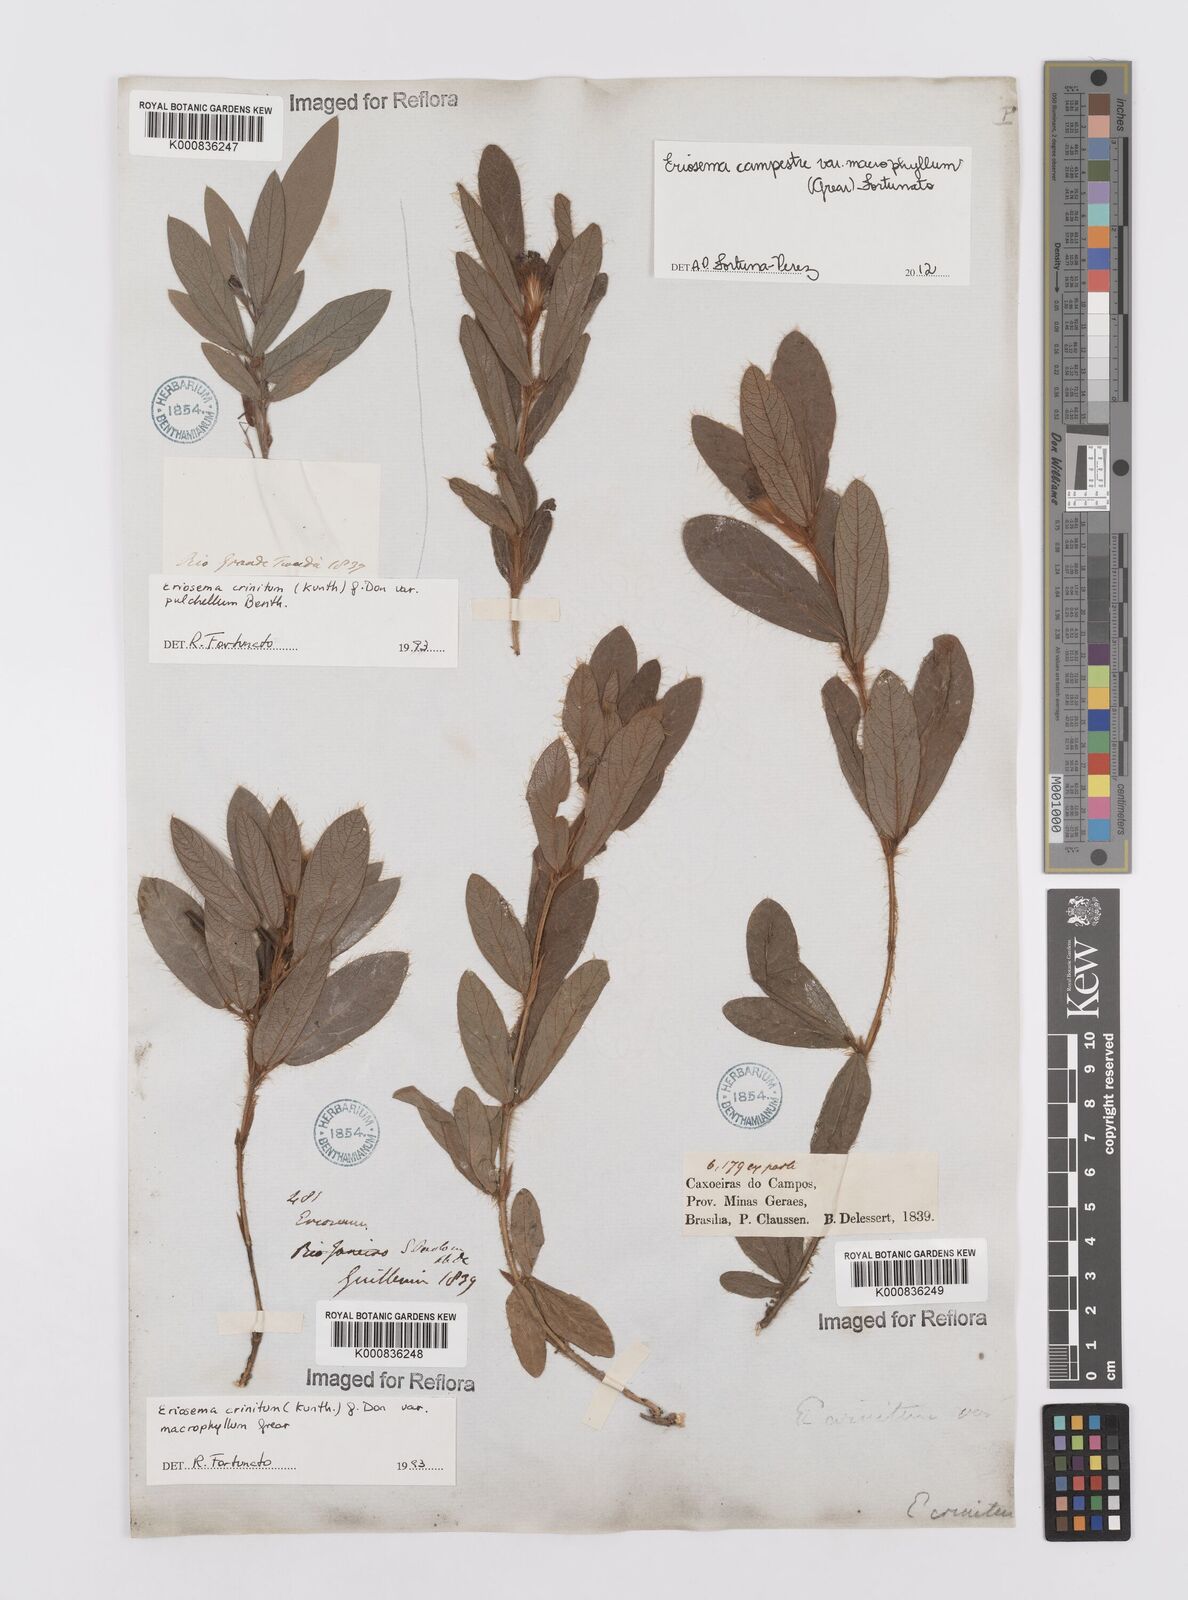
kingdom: Plantae
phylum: Tracheophyta
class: Magnoliopsida
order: Fabales
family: Fabaceae
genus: Eriosema
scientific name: Eriosema campestre
